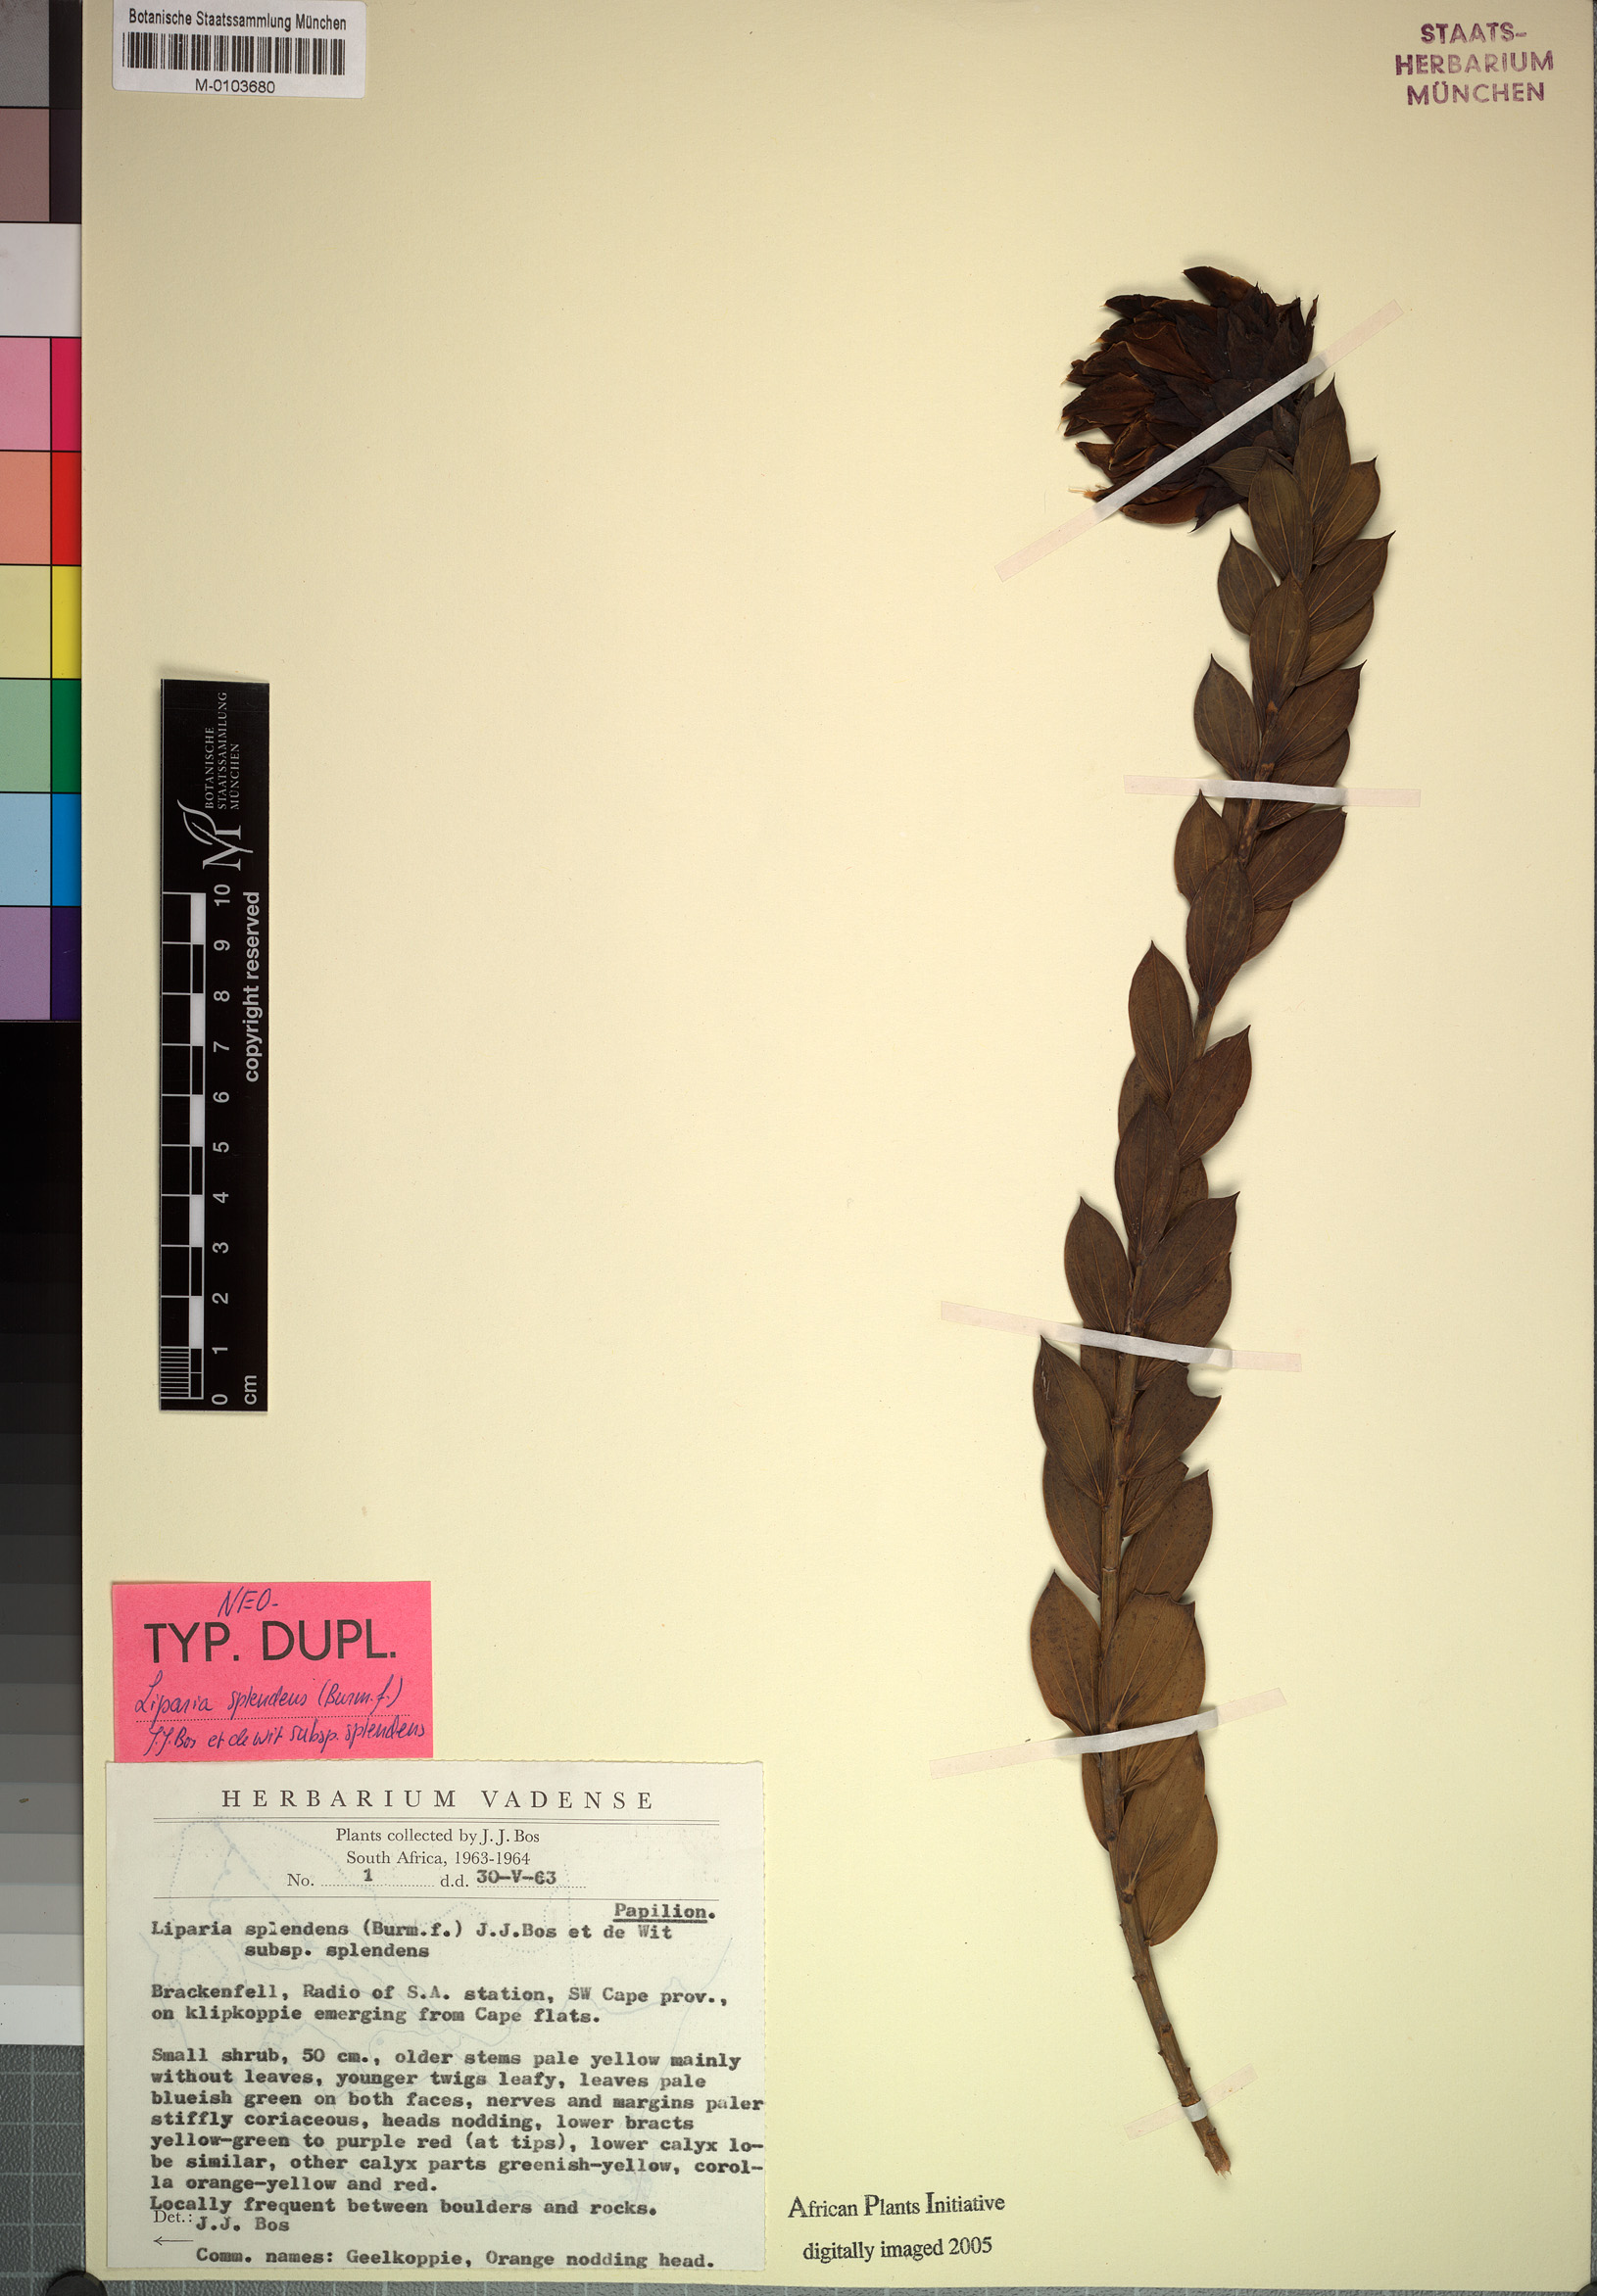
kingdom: Plantae
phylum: Tracheophyta
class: Magnoliopsida
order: Fabales
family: Fabaceae
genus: Liparia
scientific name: Liparia splendens
